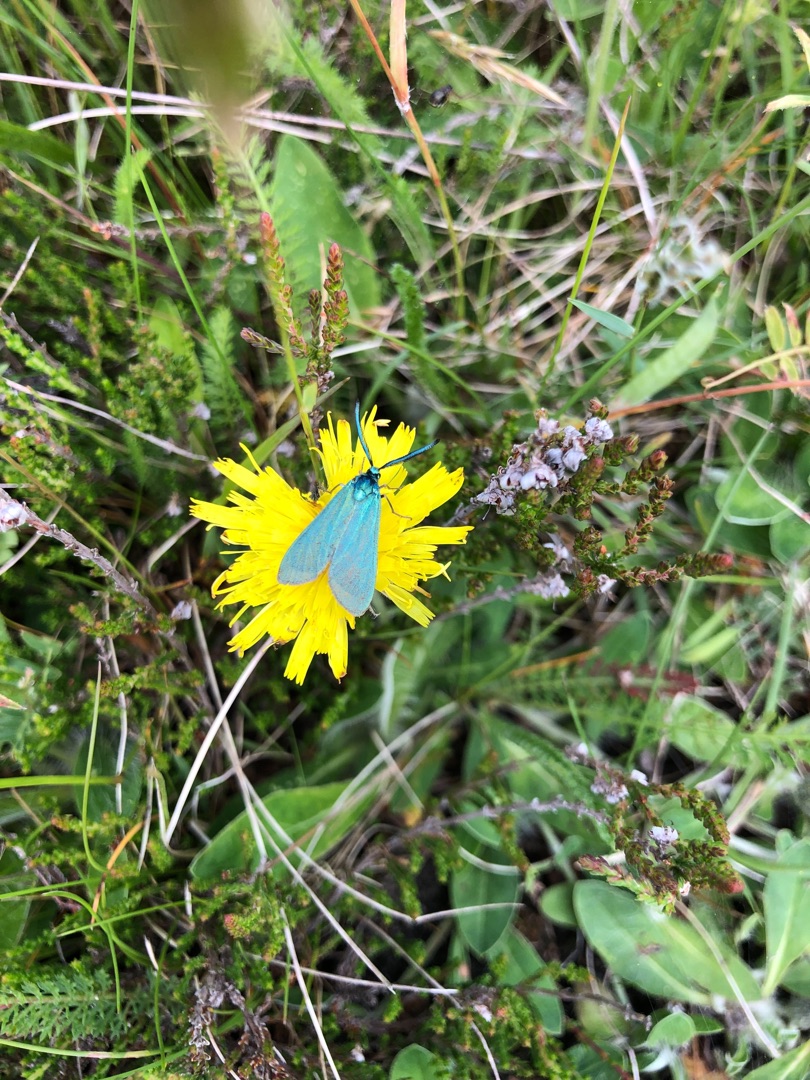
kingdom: Animalia
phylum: Arthropoda
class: Insecta
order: Lepidoptera
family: Zygaenidae
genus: Adscita
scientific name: Adscita statices
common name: Metalvinge
